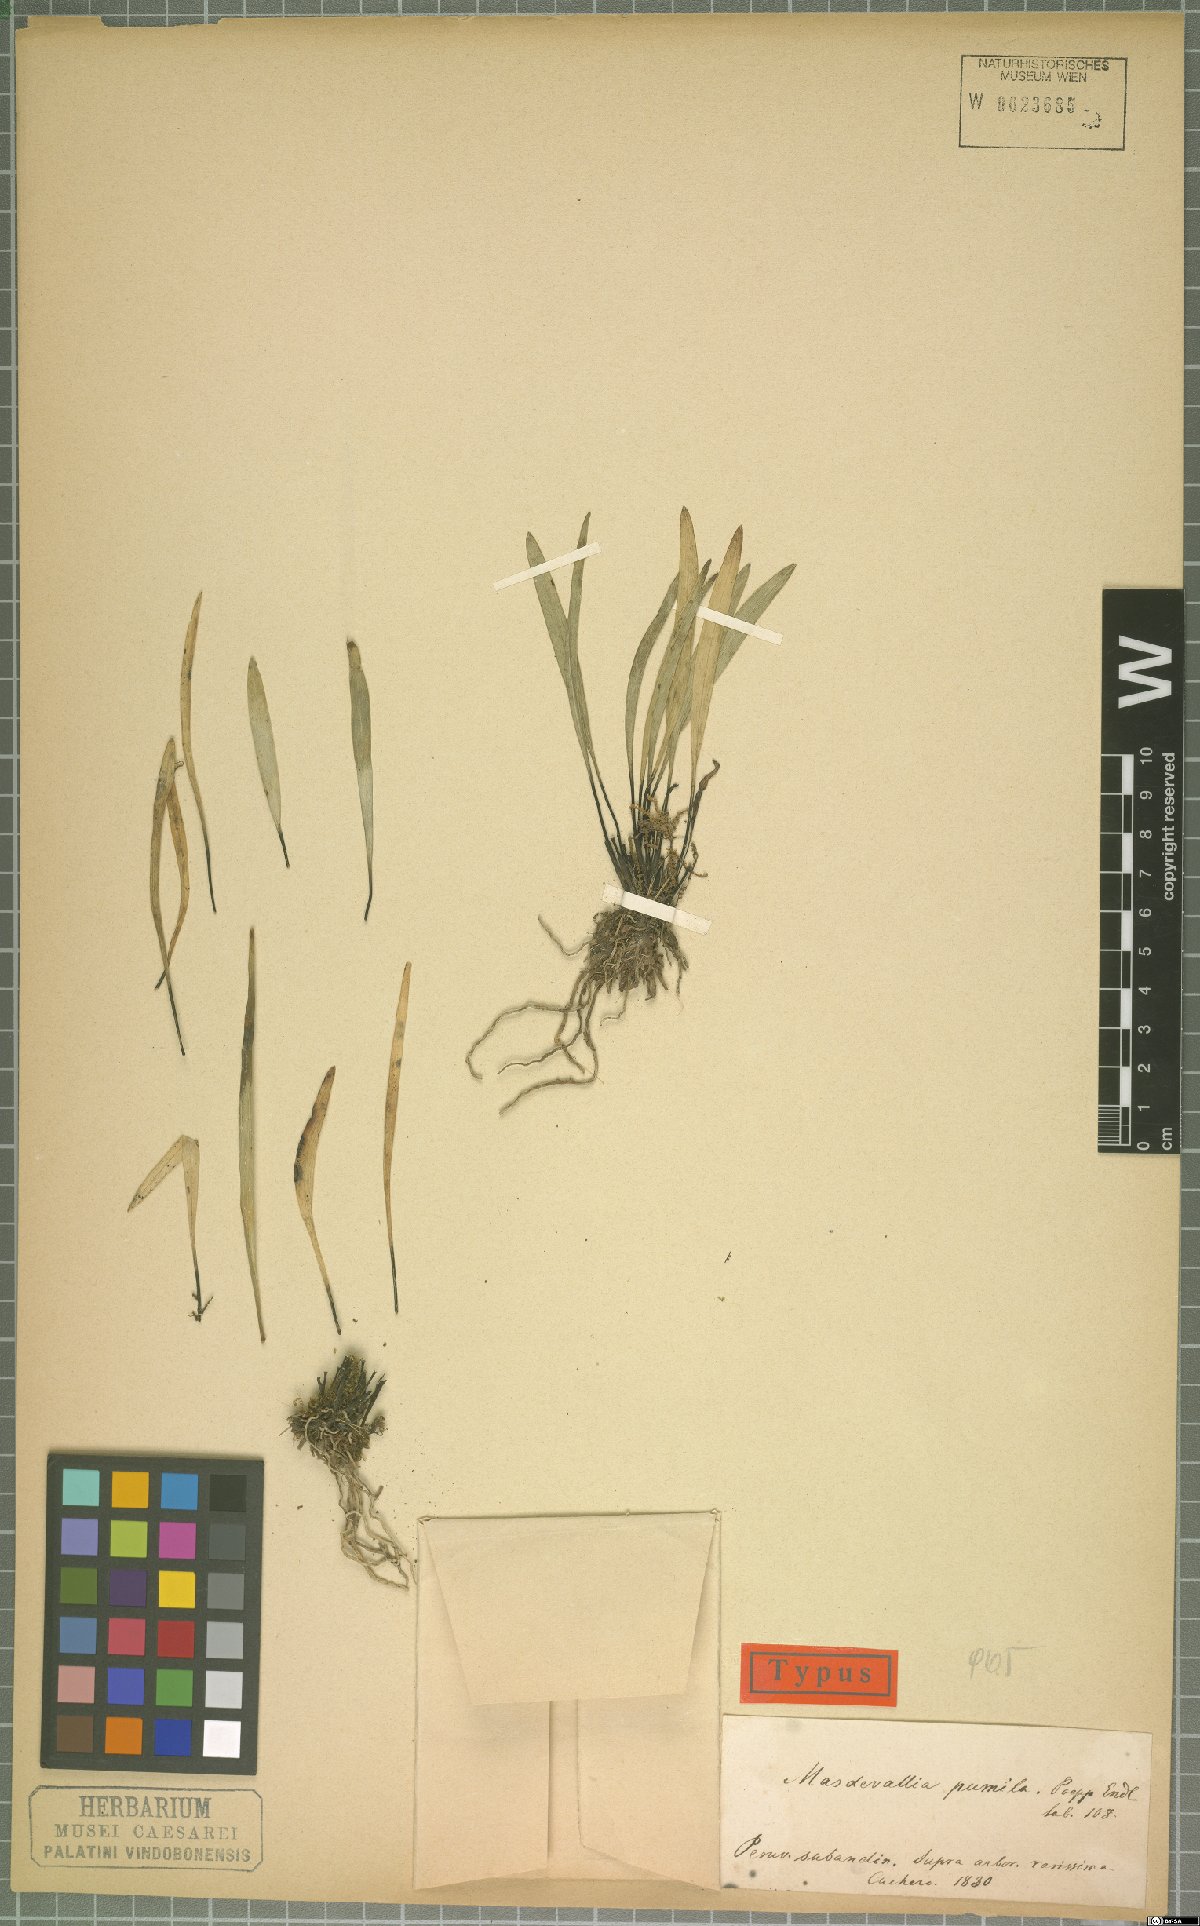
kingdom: Plantae
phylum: Tracheophyta
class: Liliopsida
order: Asparagales
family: Orchidaceae
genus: Masdevallia
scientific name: Masdevallia pumila
